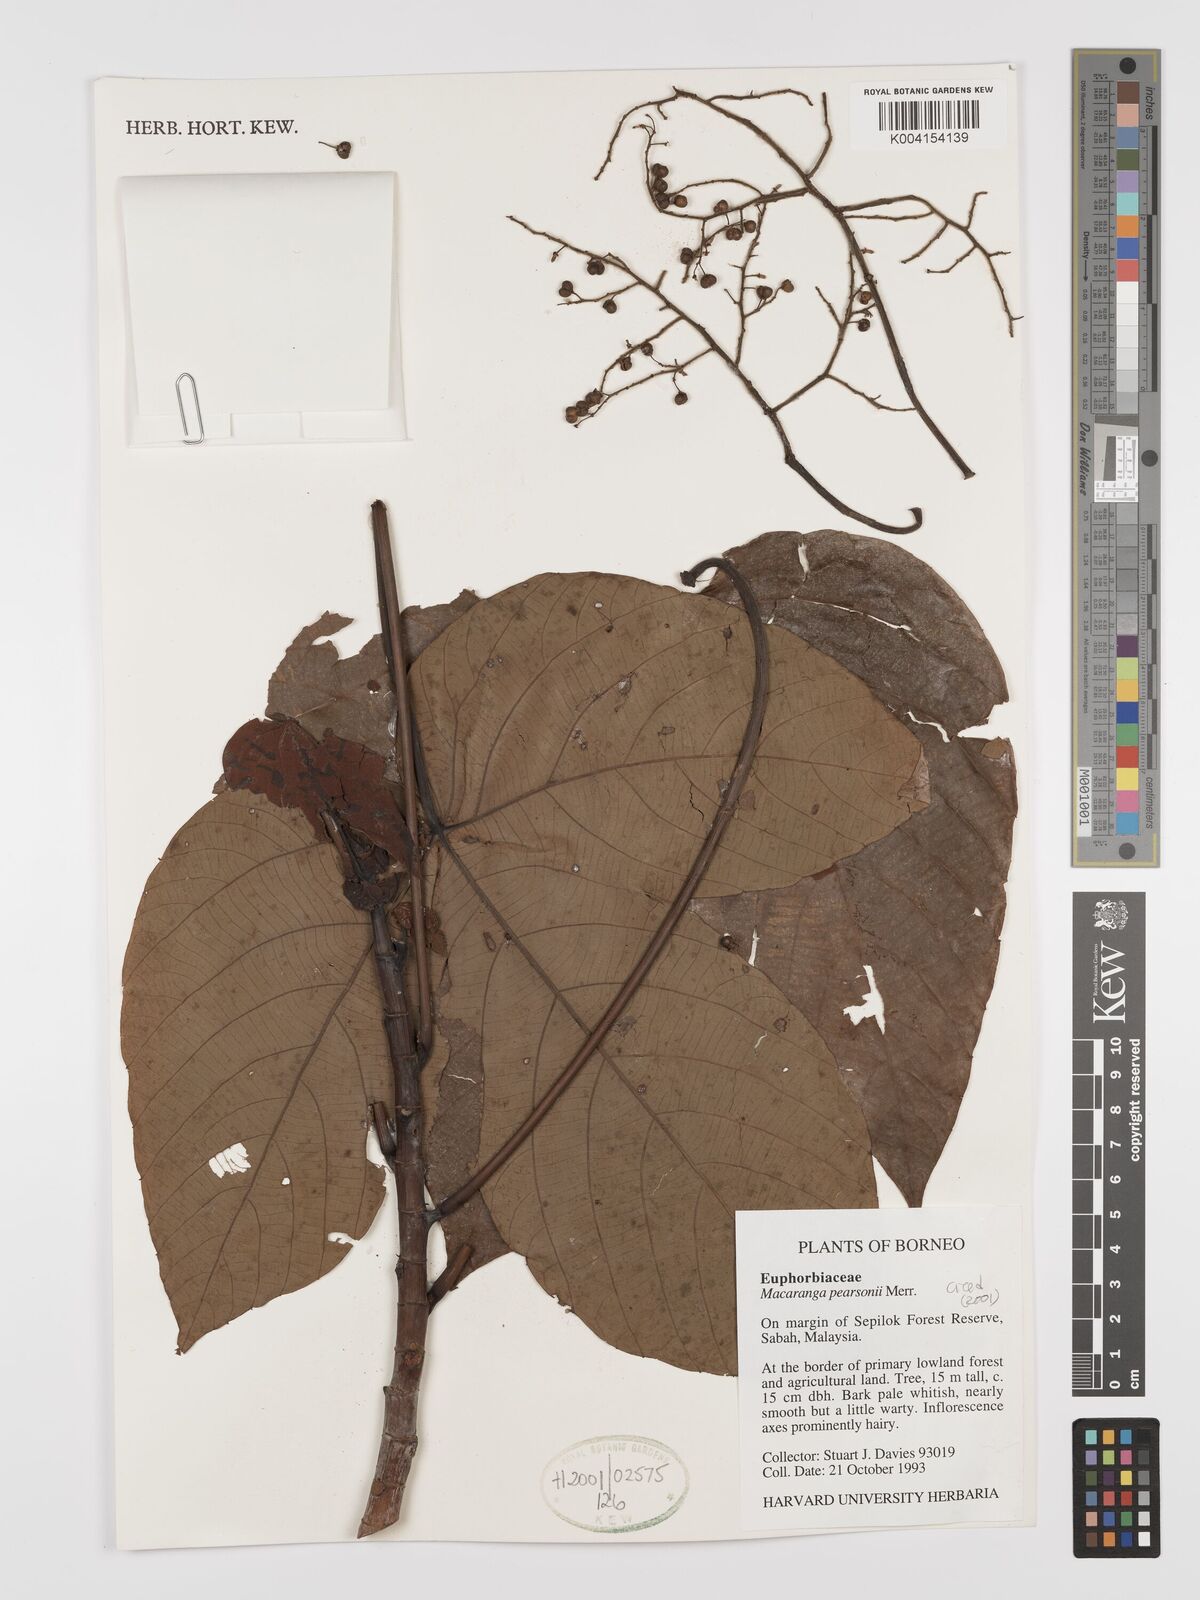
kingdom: Plantae
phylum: Tracheophyta
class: Magnoliopsida
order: Malpighiales
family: Euphorbiaceae
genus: Macaranga
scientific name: Macaranga pearsonii
